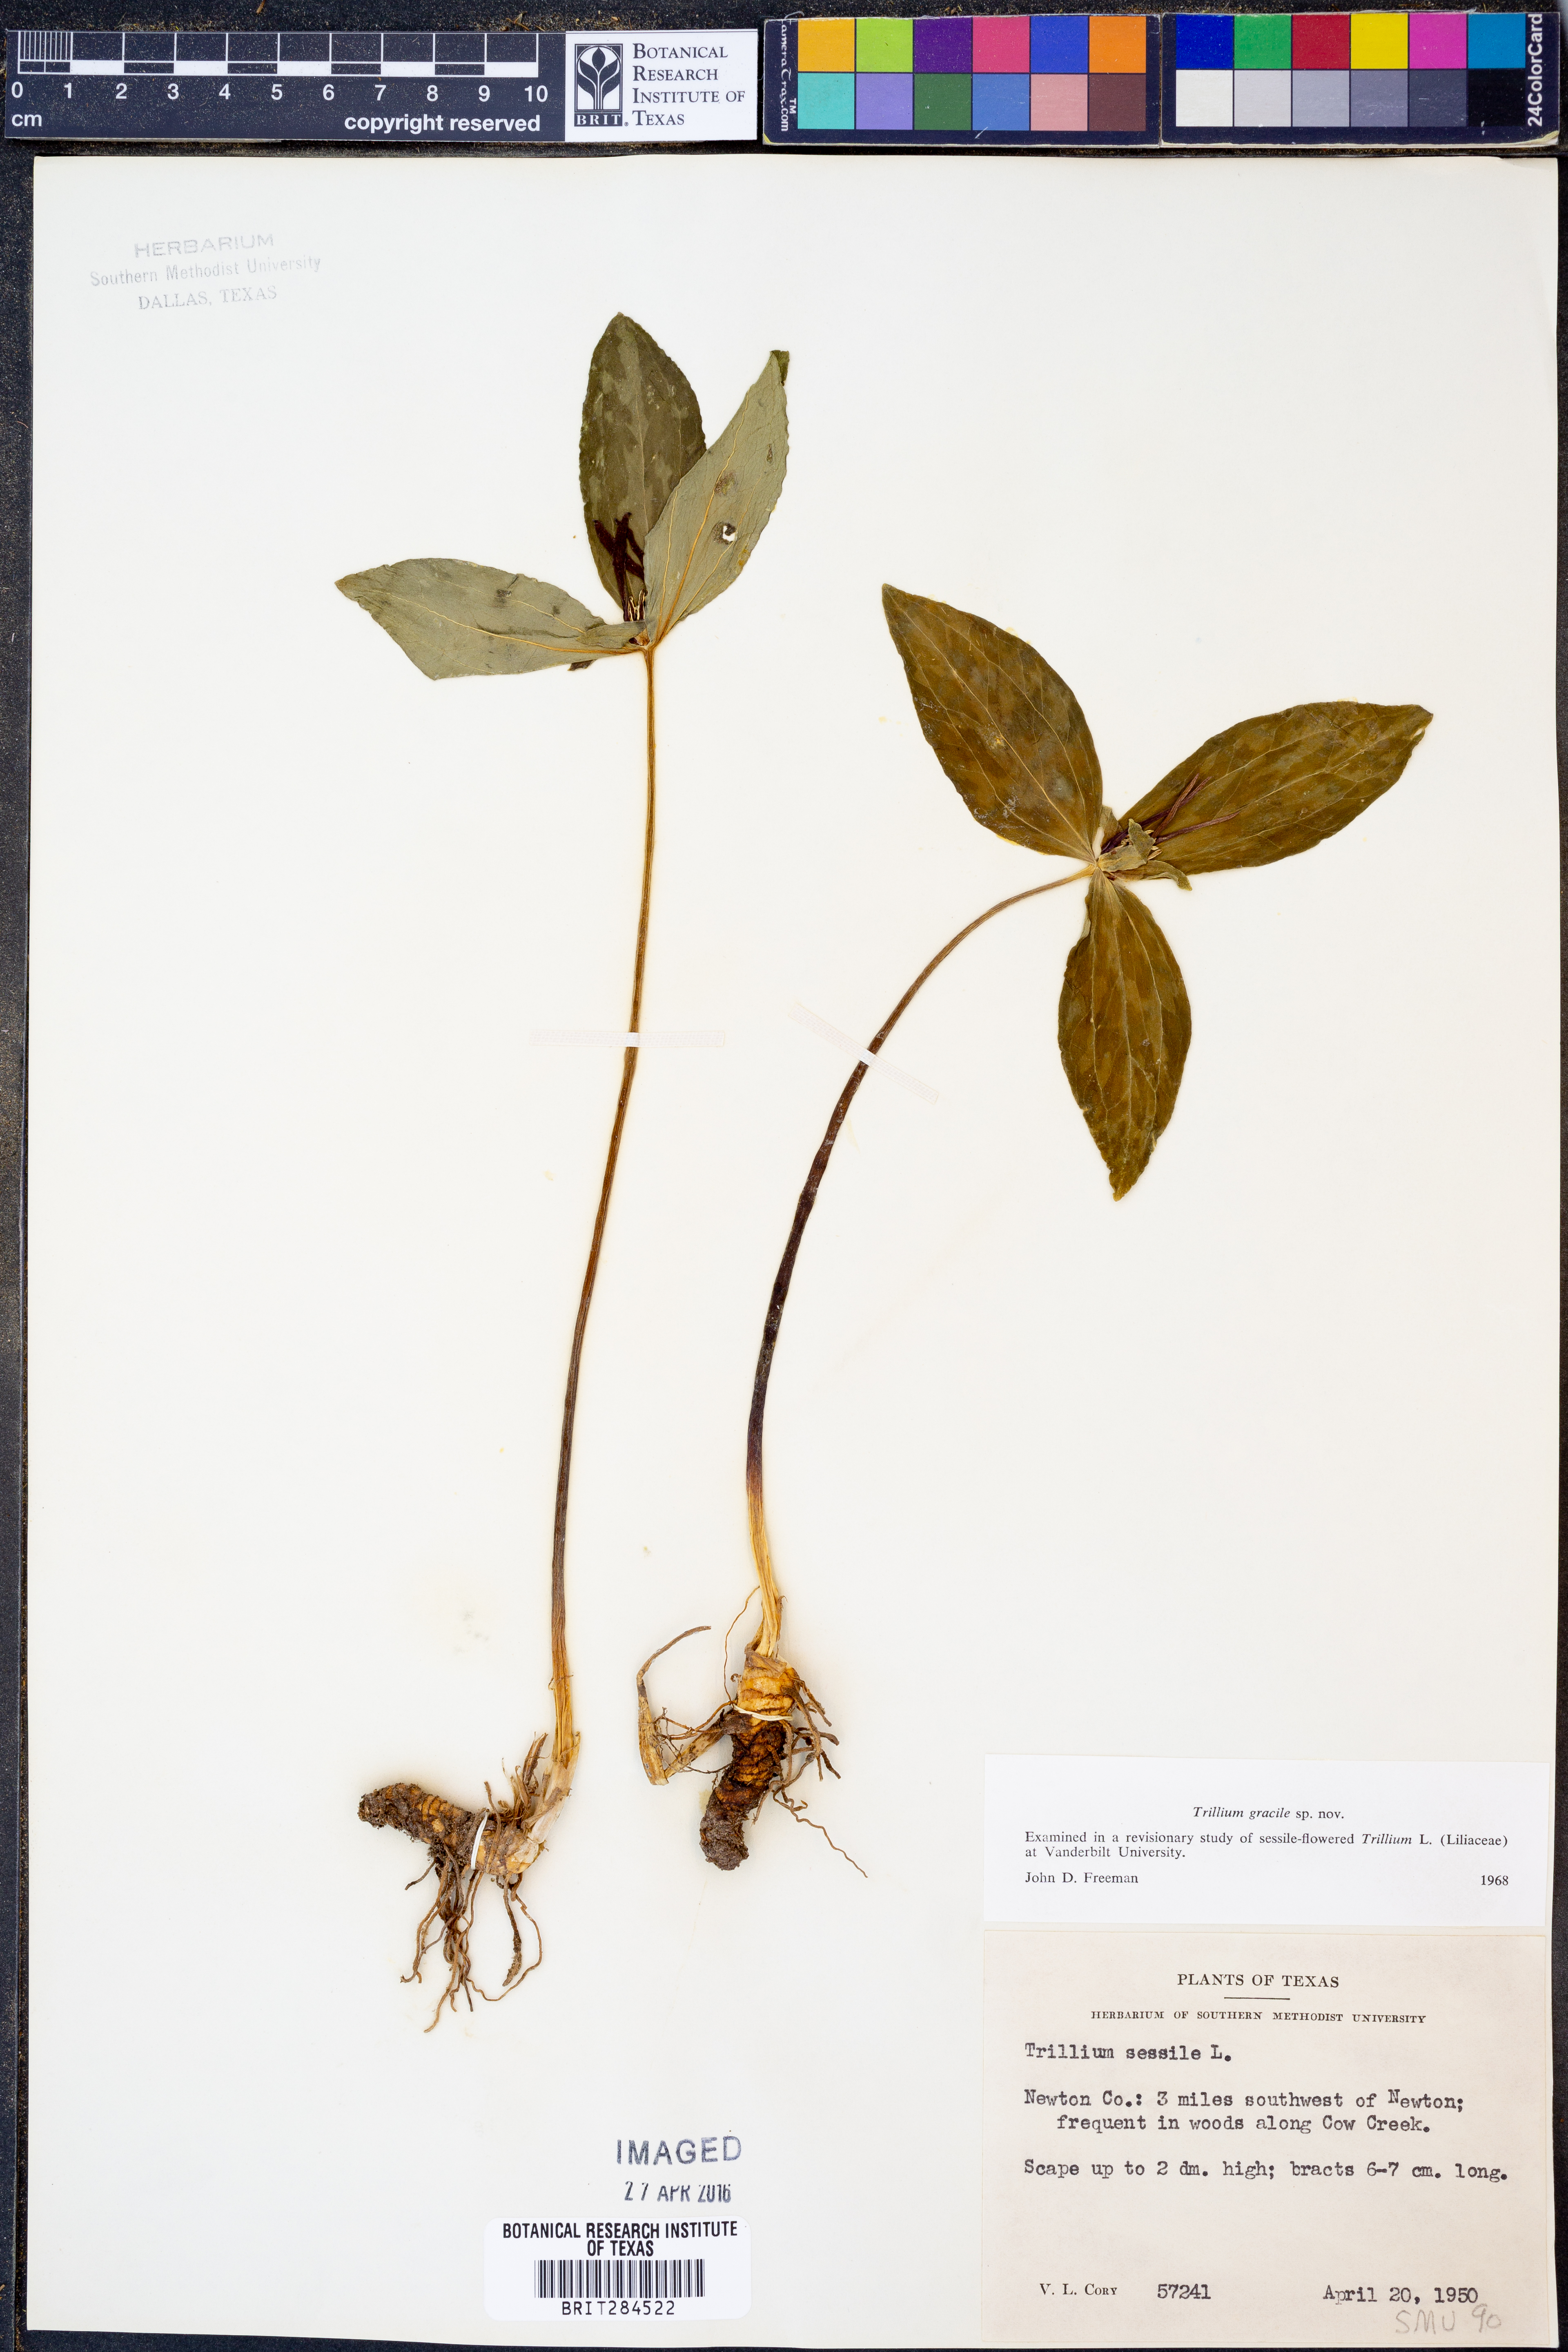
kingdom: Plantae
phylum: Tracheophyta
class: Liliopsida
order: Liliales
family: Melanthiaceae
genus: Trillium
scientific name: Trillium gracile
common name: Graceful trillium
